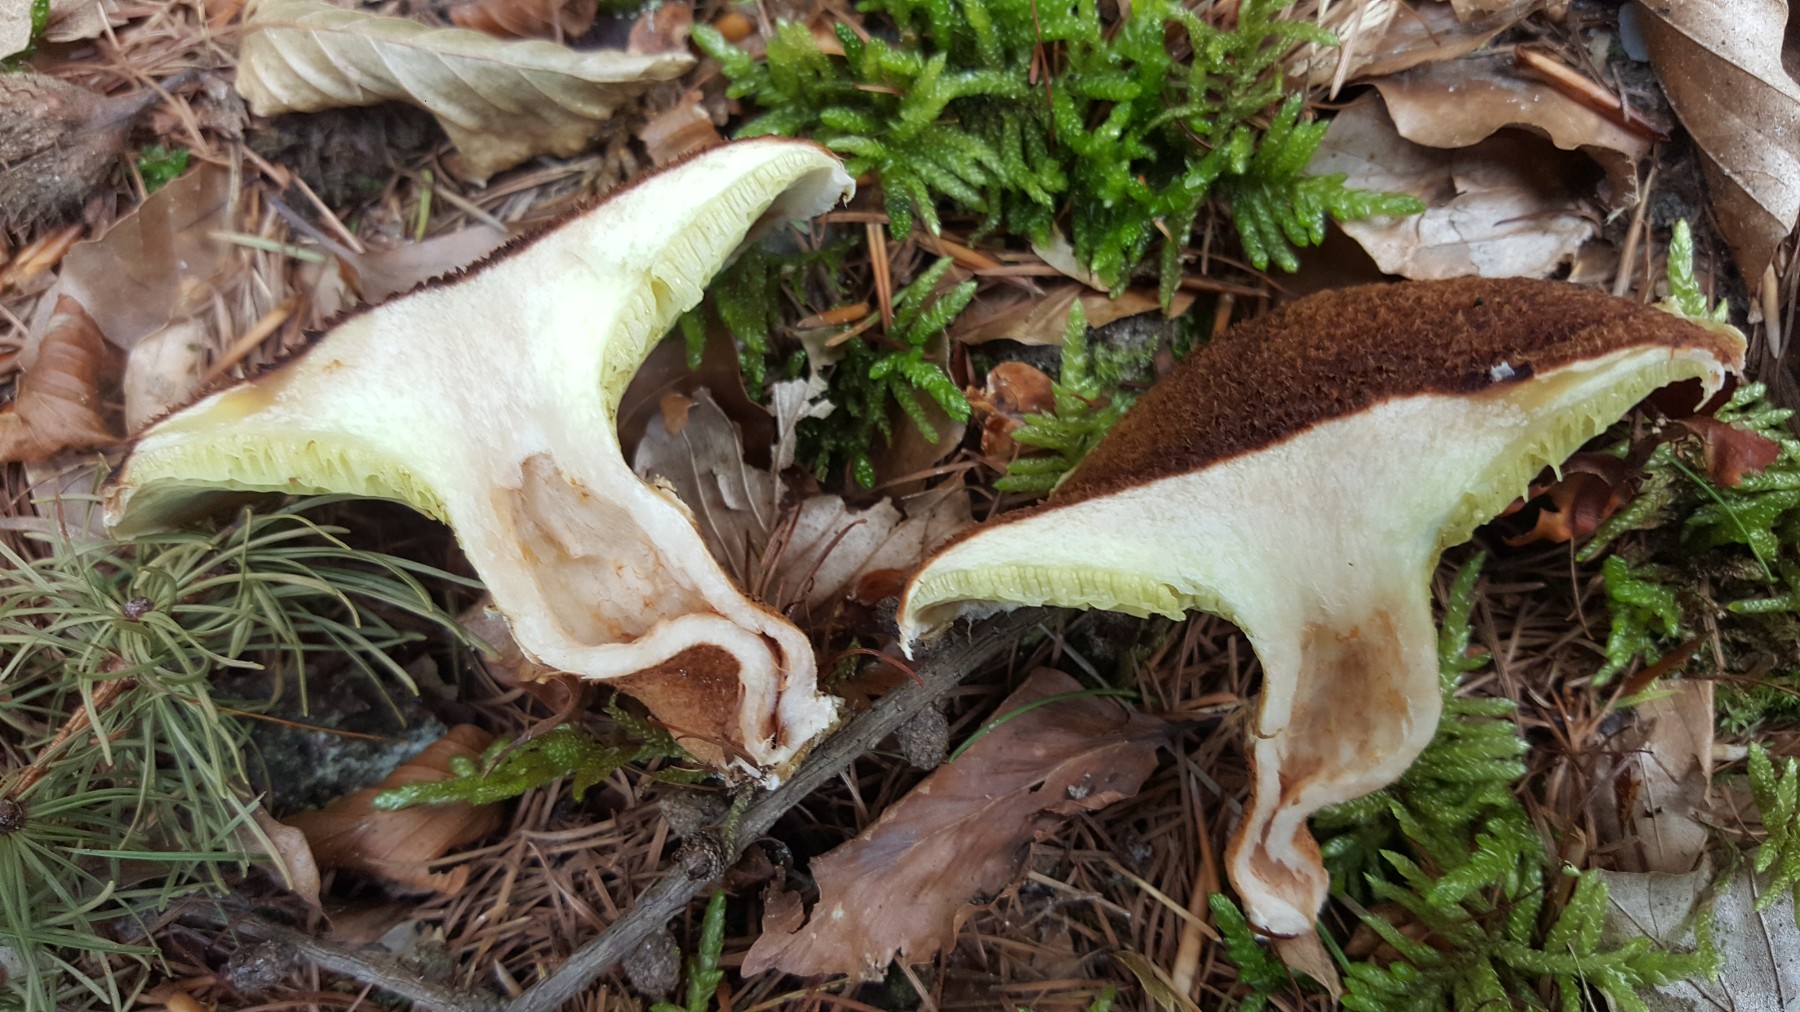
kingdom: Fungi
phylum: Basidiomycota
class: Agaricomycetes
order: Boletales
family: Suillaceae
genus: Suillus
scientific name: Suillus cavipes
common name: hulstokket slimrørhat
